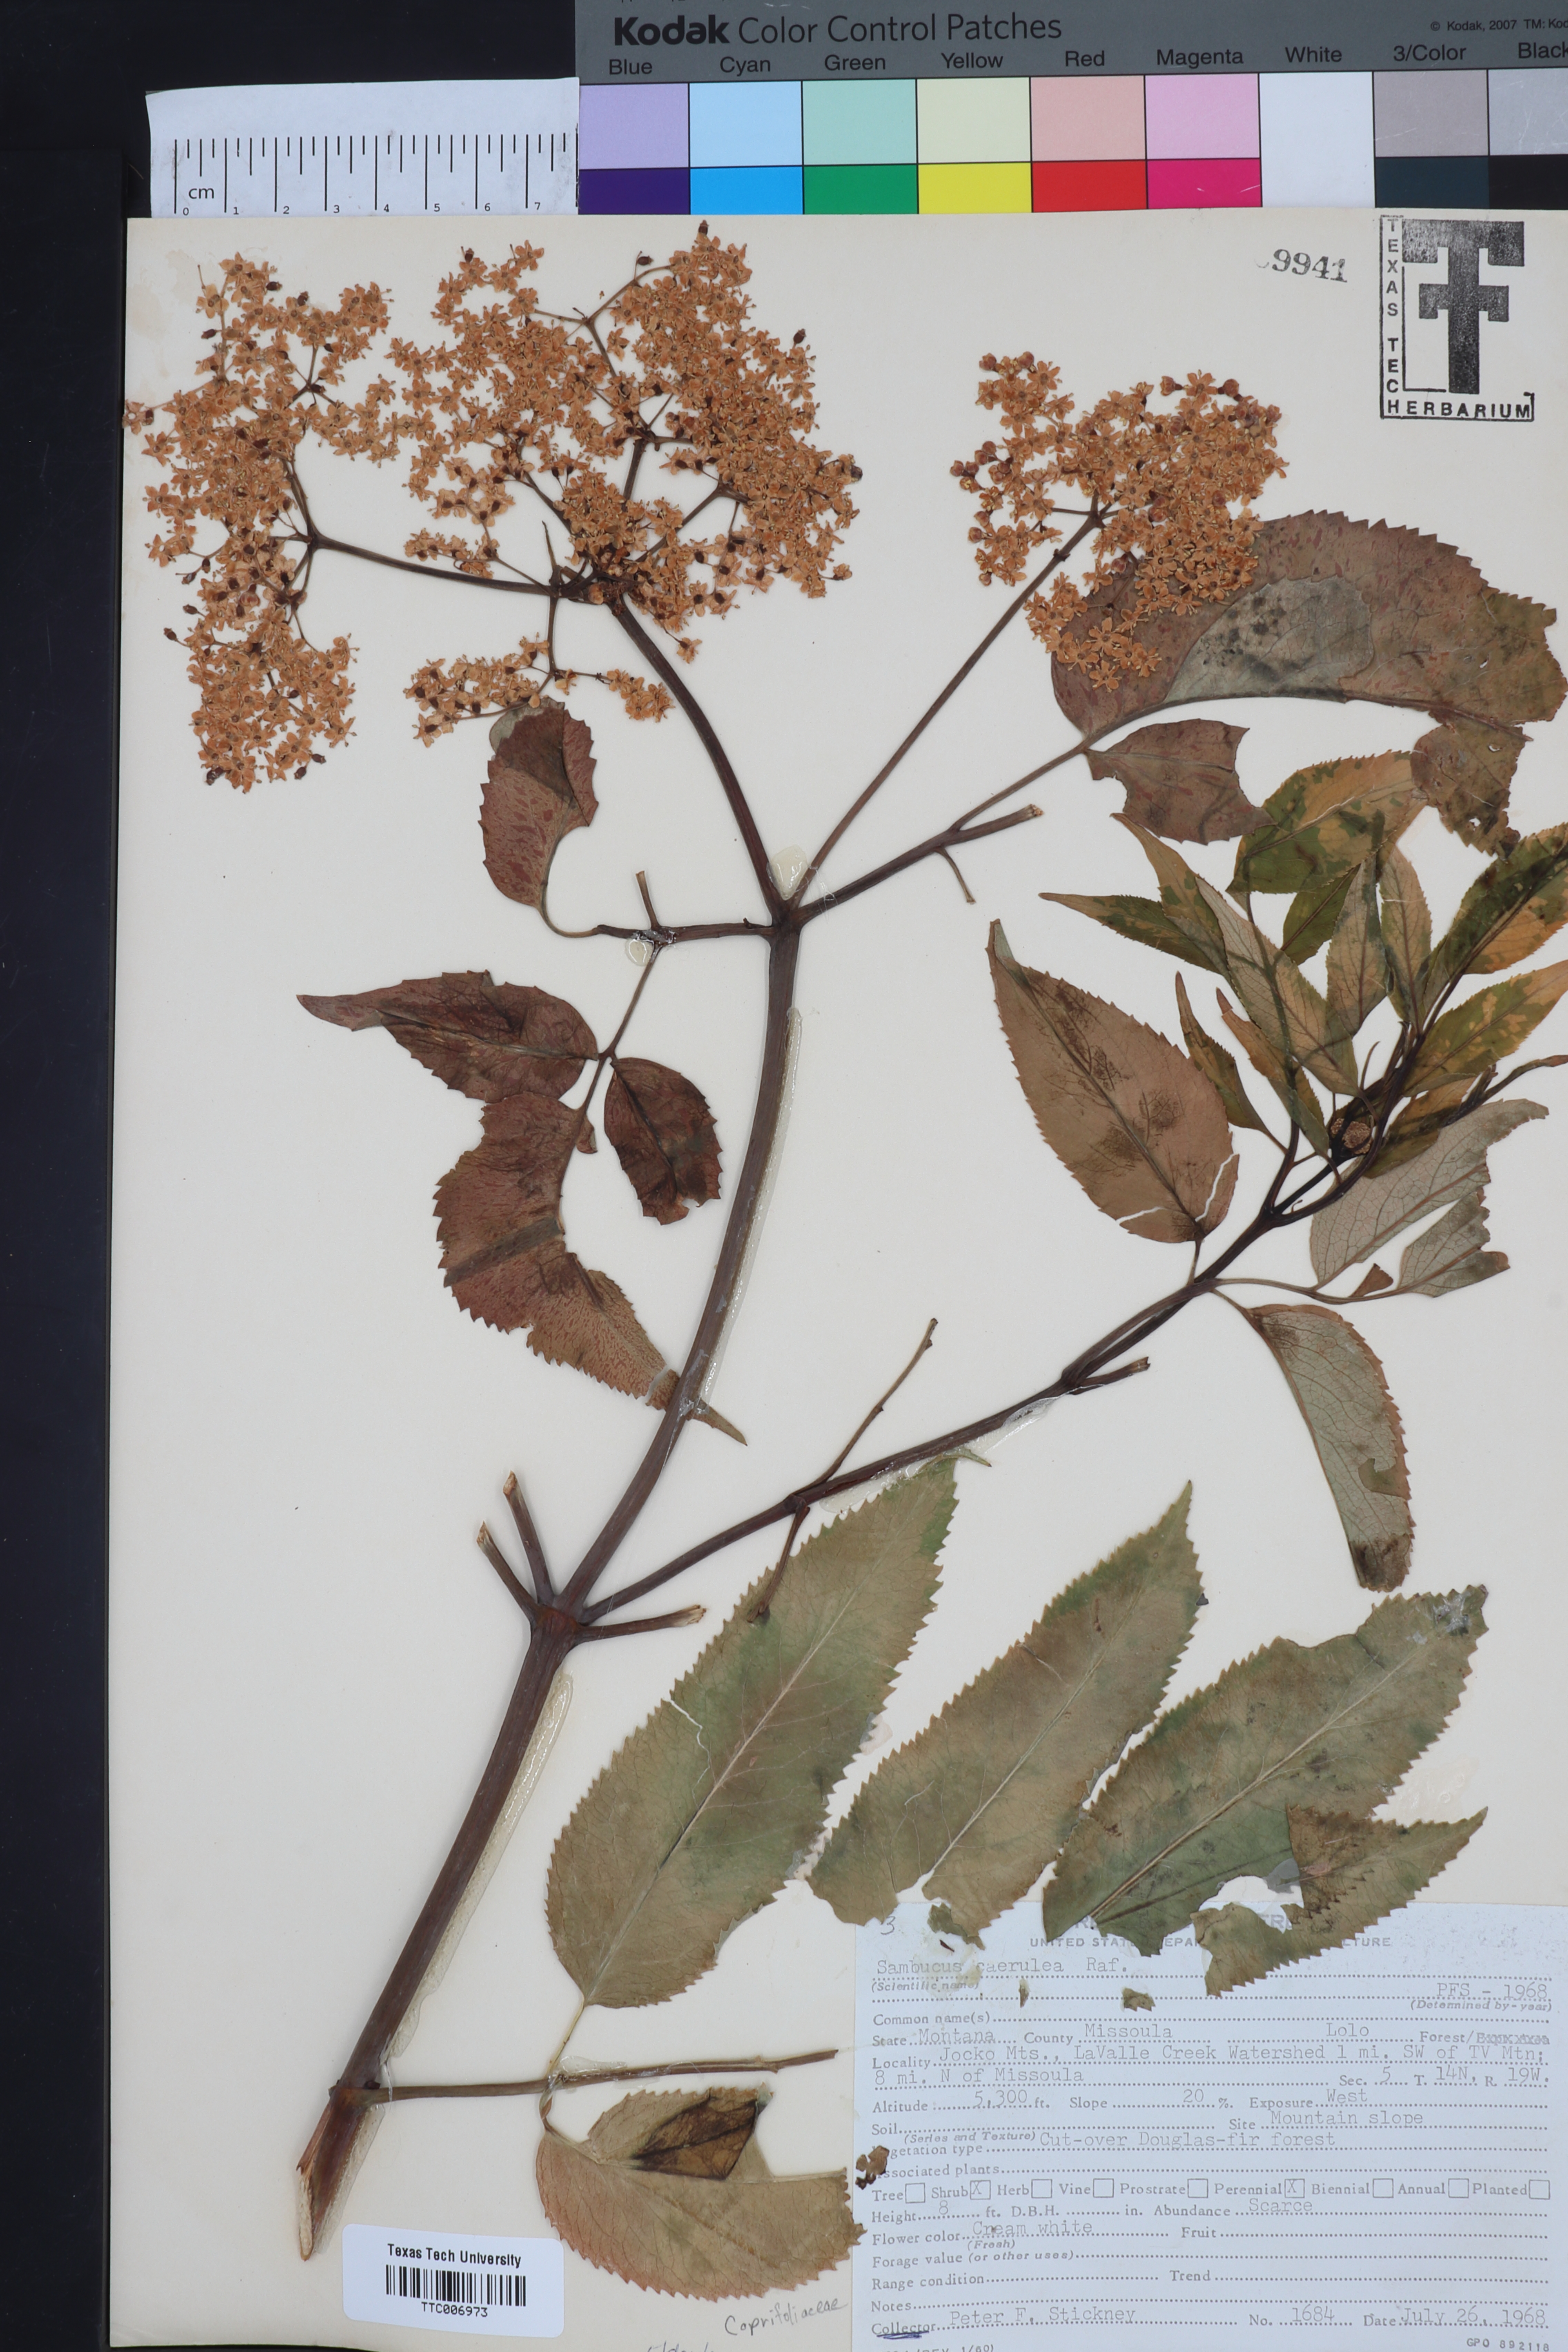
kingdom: Plantae
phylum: Tracheophyta
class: Magnoliopsida
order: Dipsacales
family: Viburnaceae
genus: Sambucus
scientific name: Sambucus caerulea
